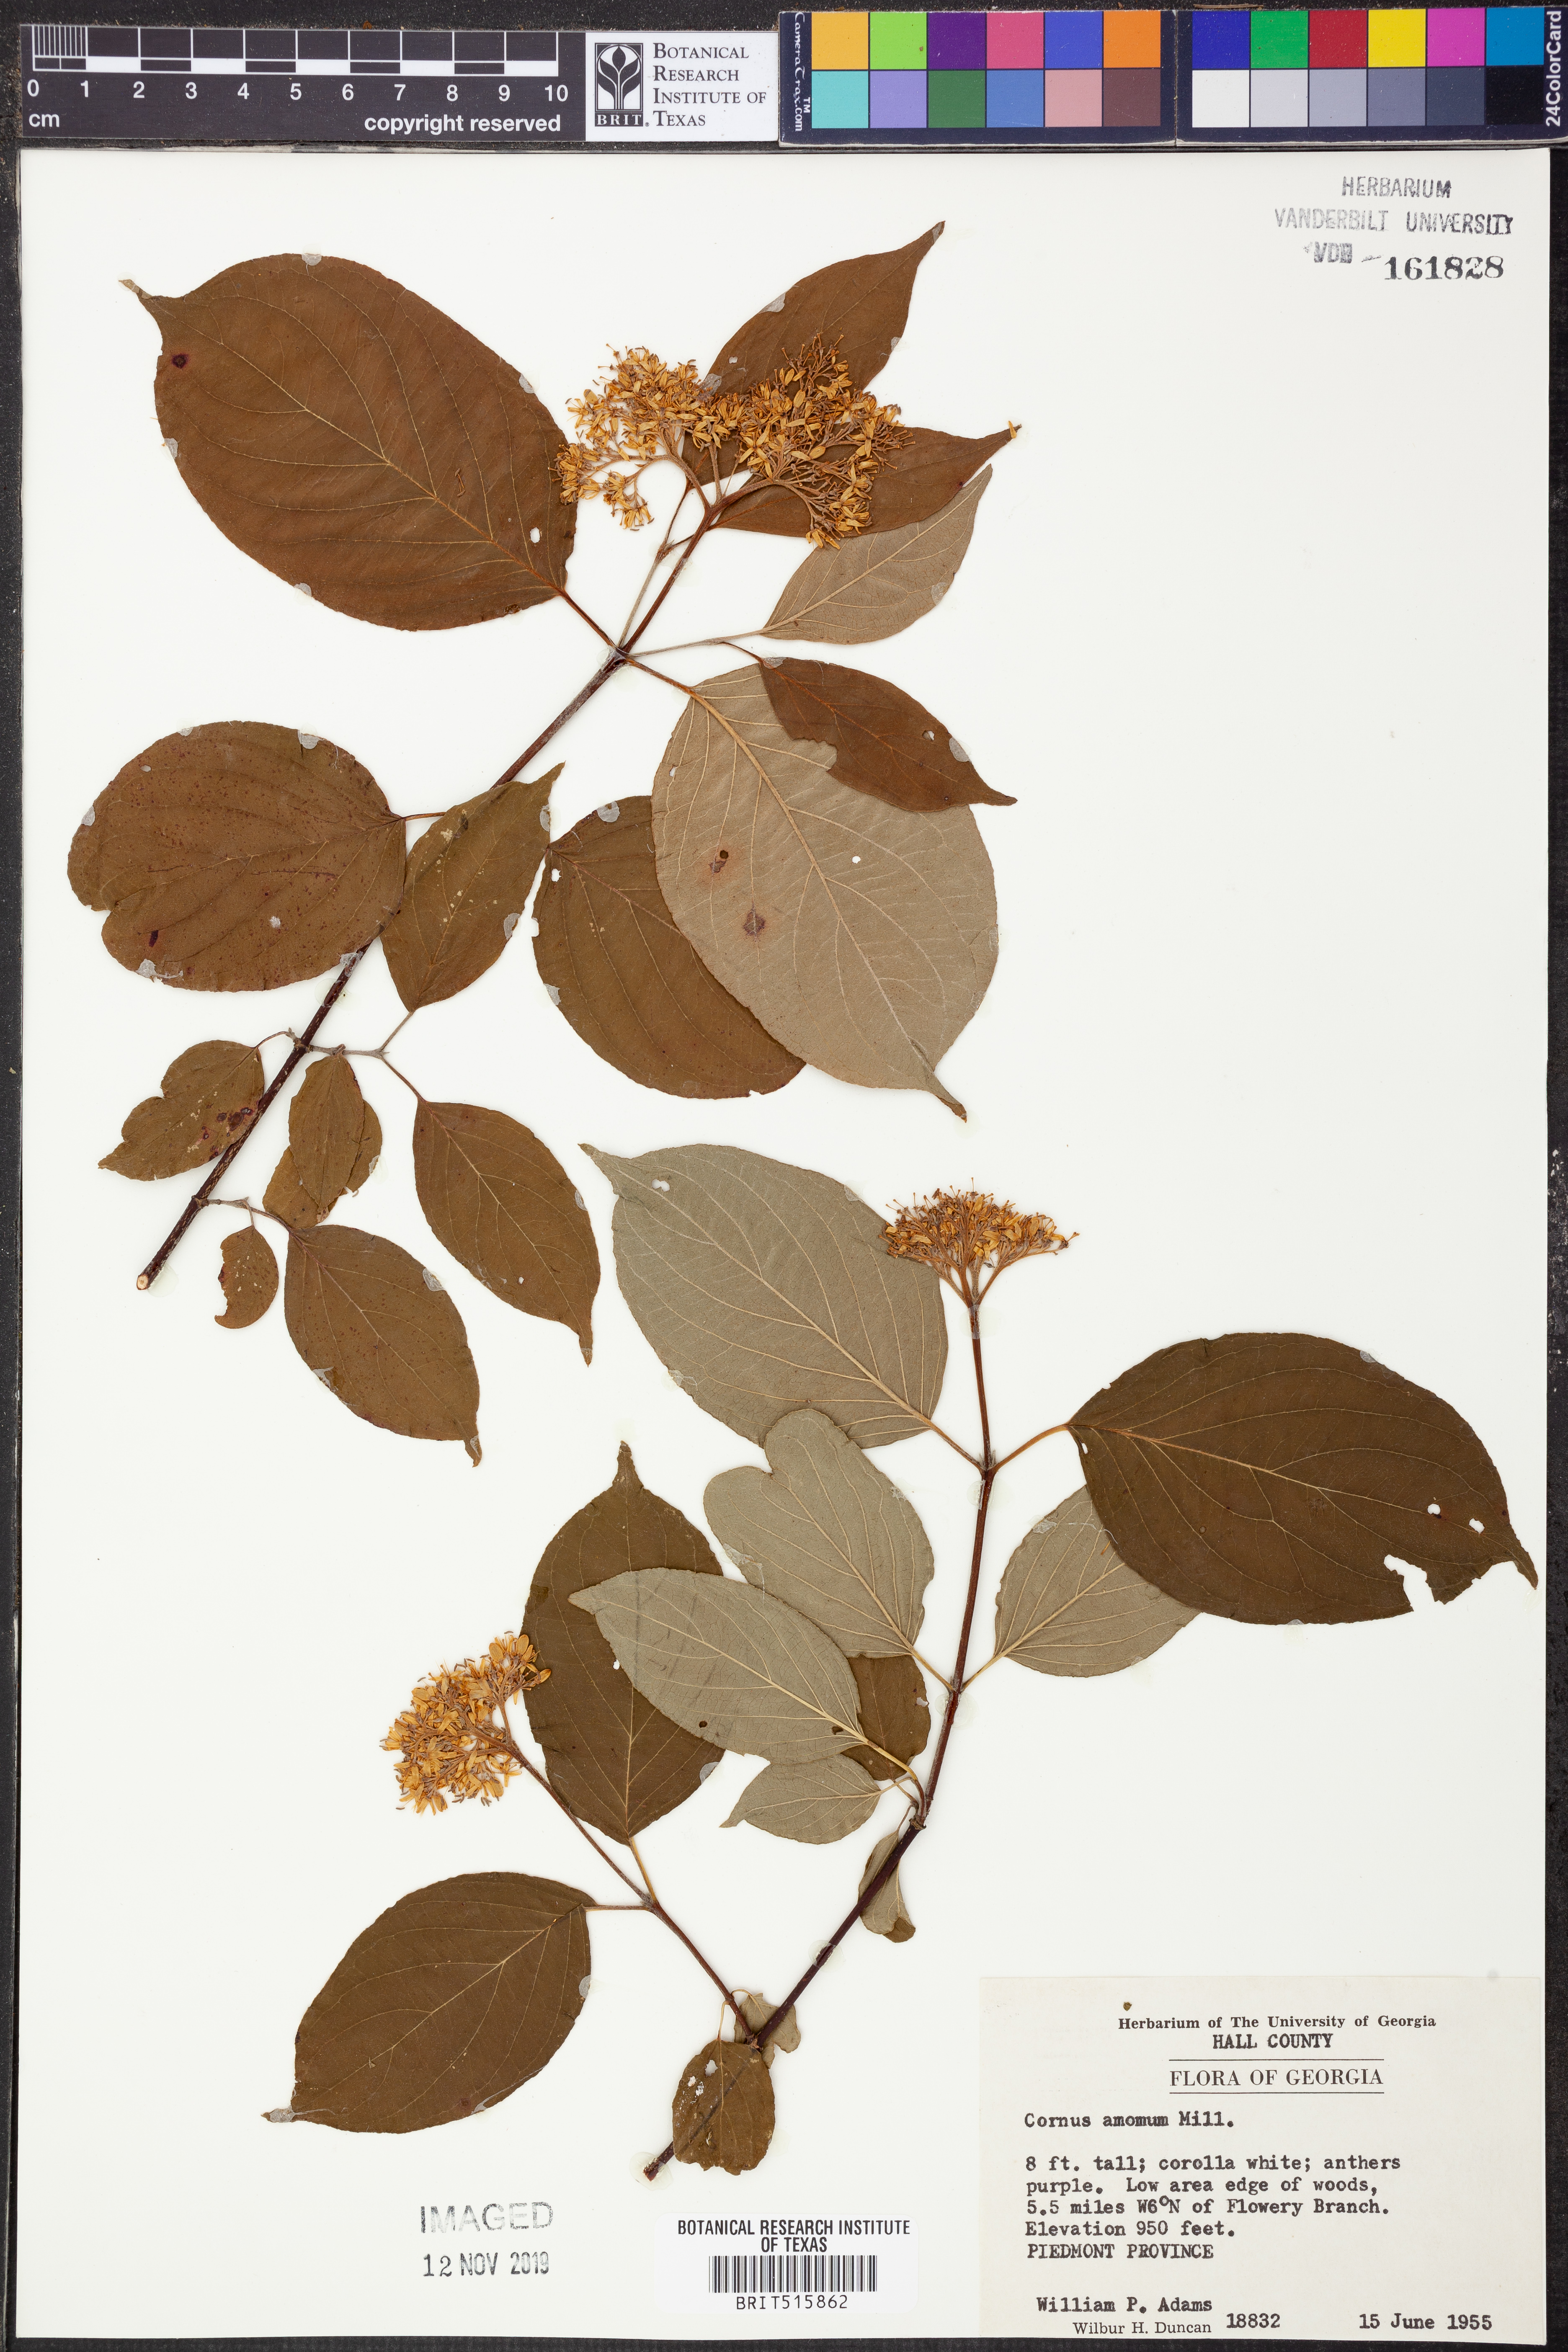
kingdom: Plantae
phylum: Tracheophyta
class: Magnoliopsida
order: Cornales
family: Cornaceae
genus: Cornus
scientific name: Cornus amomum
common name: Silky dogwood
